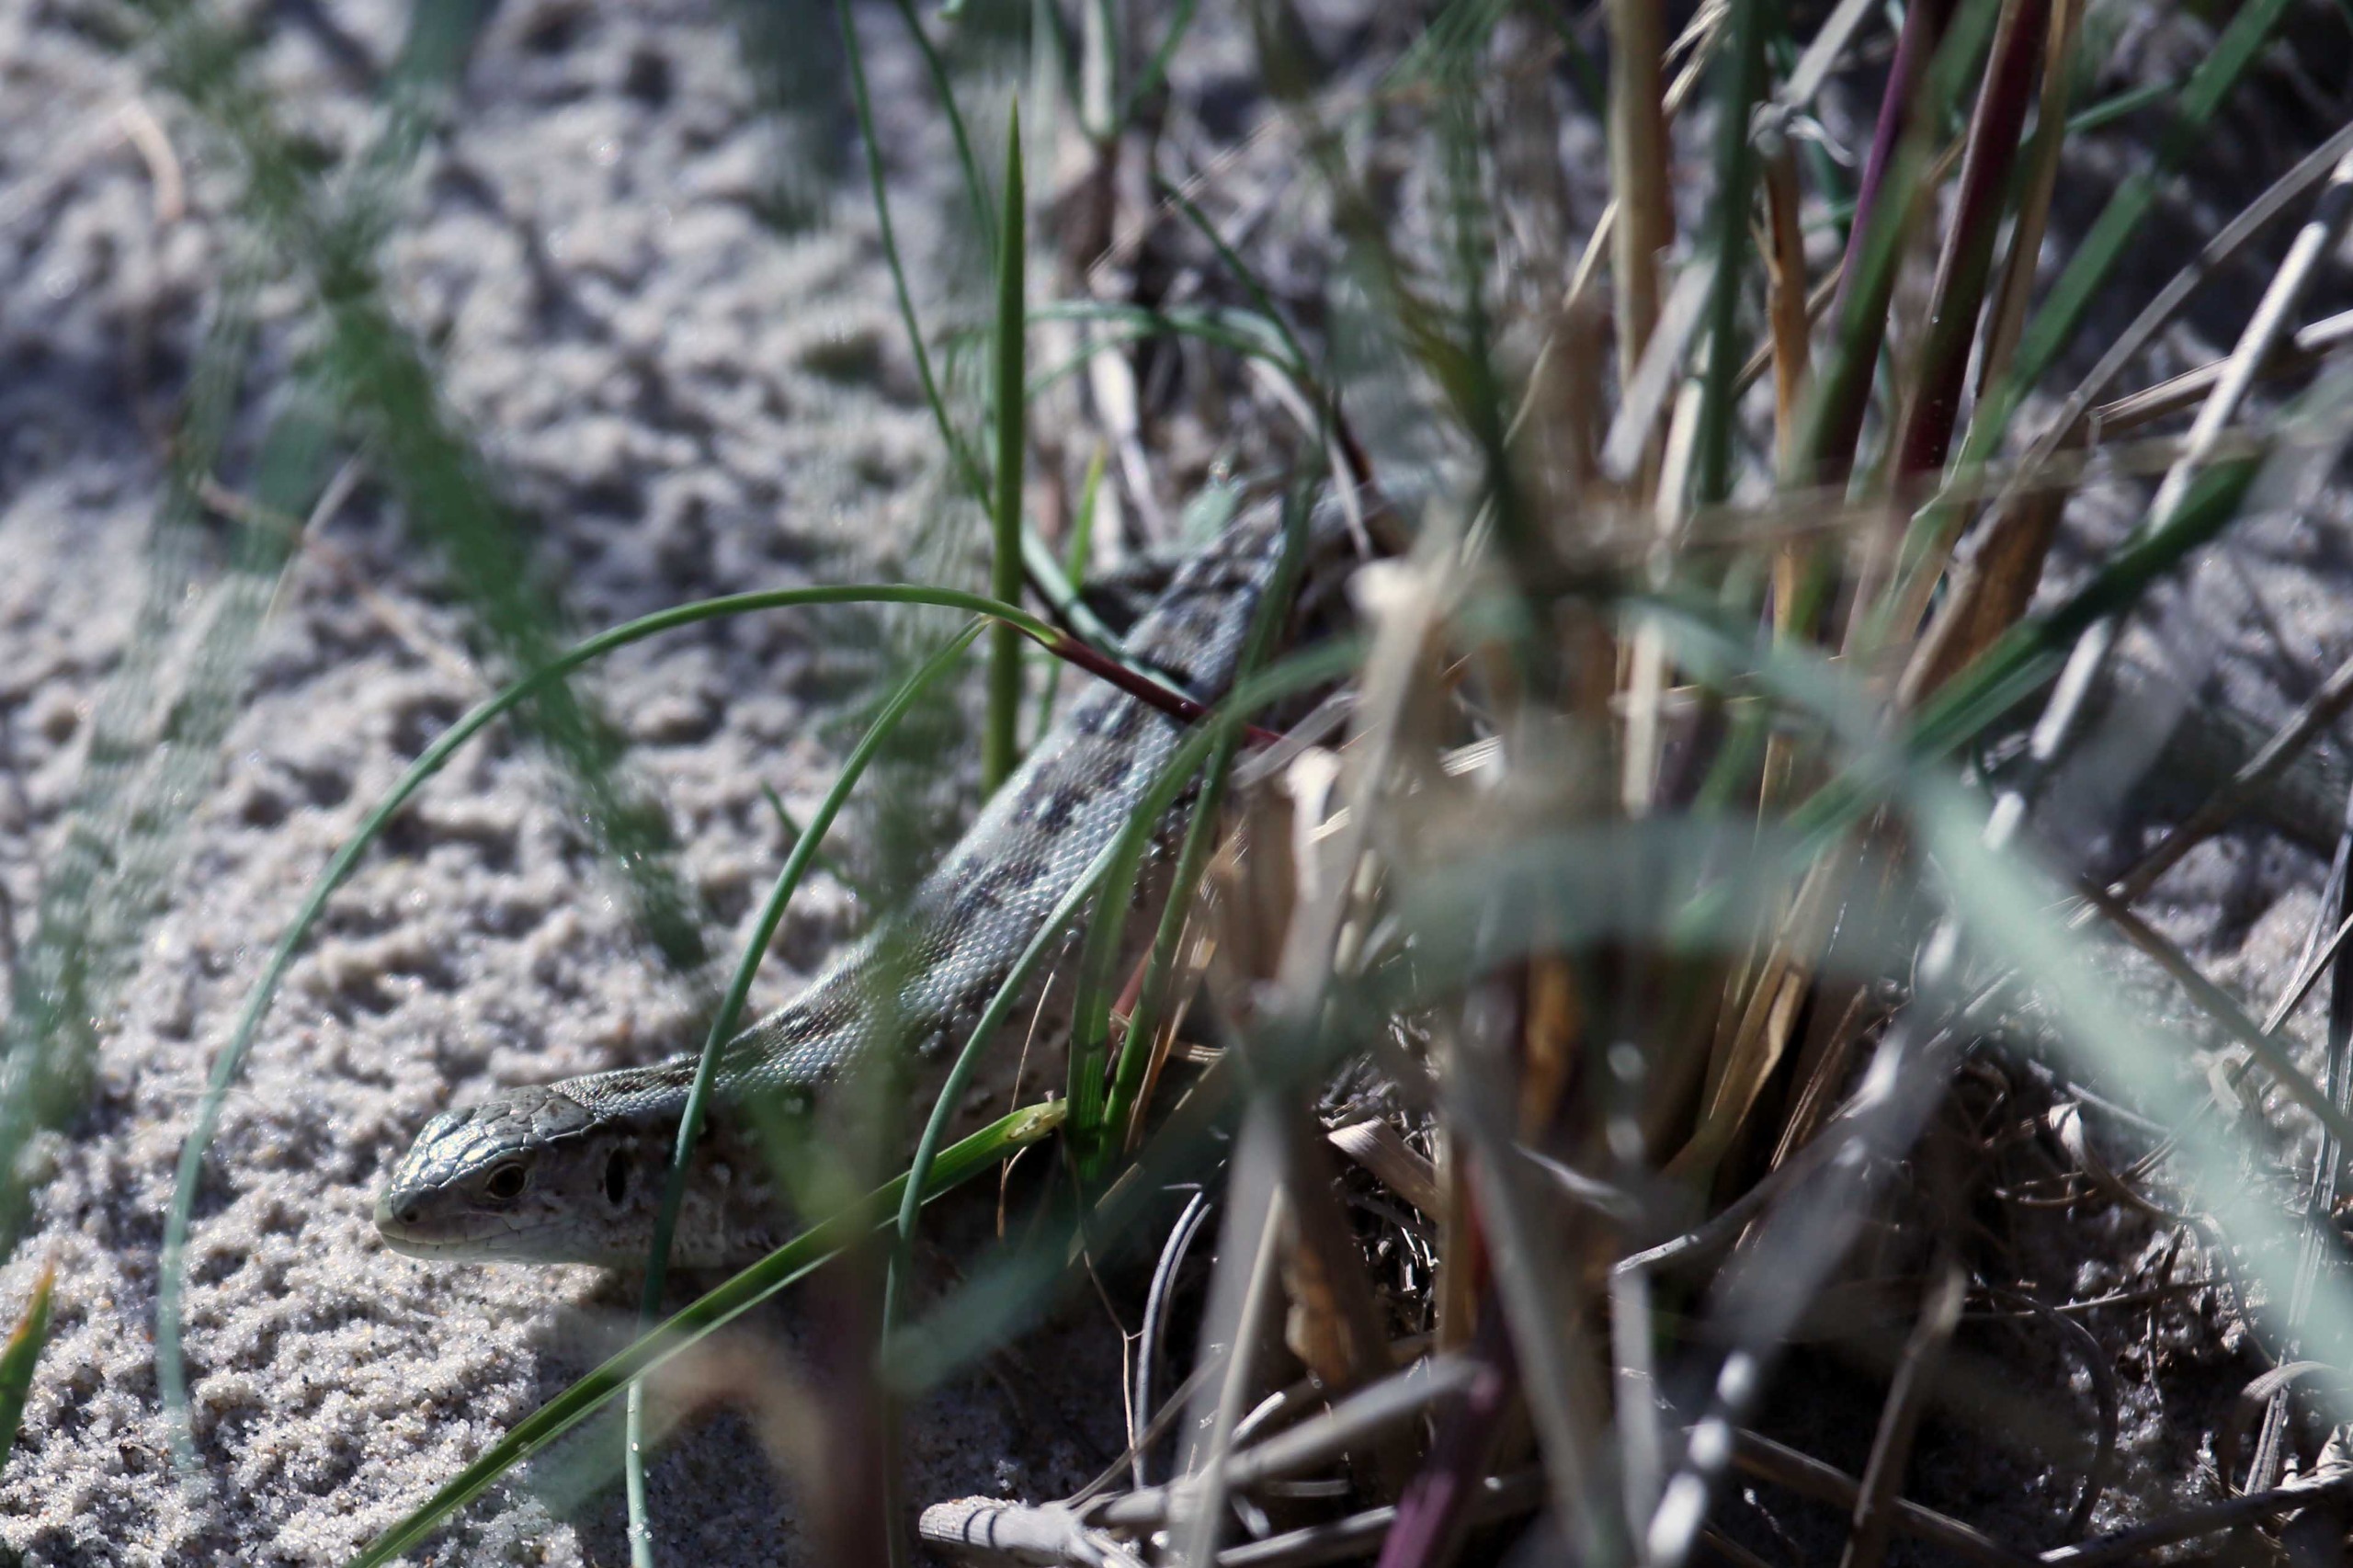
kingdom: Animalia
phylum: Chordata
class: Squamata
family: Lacertidae
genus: Lacerta
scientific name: Lacerta agilis
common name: Markfirben
